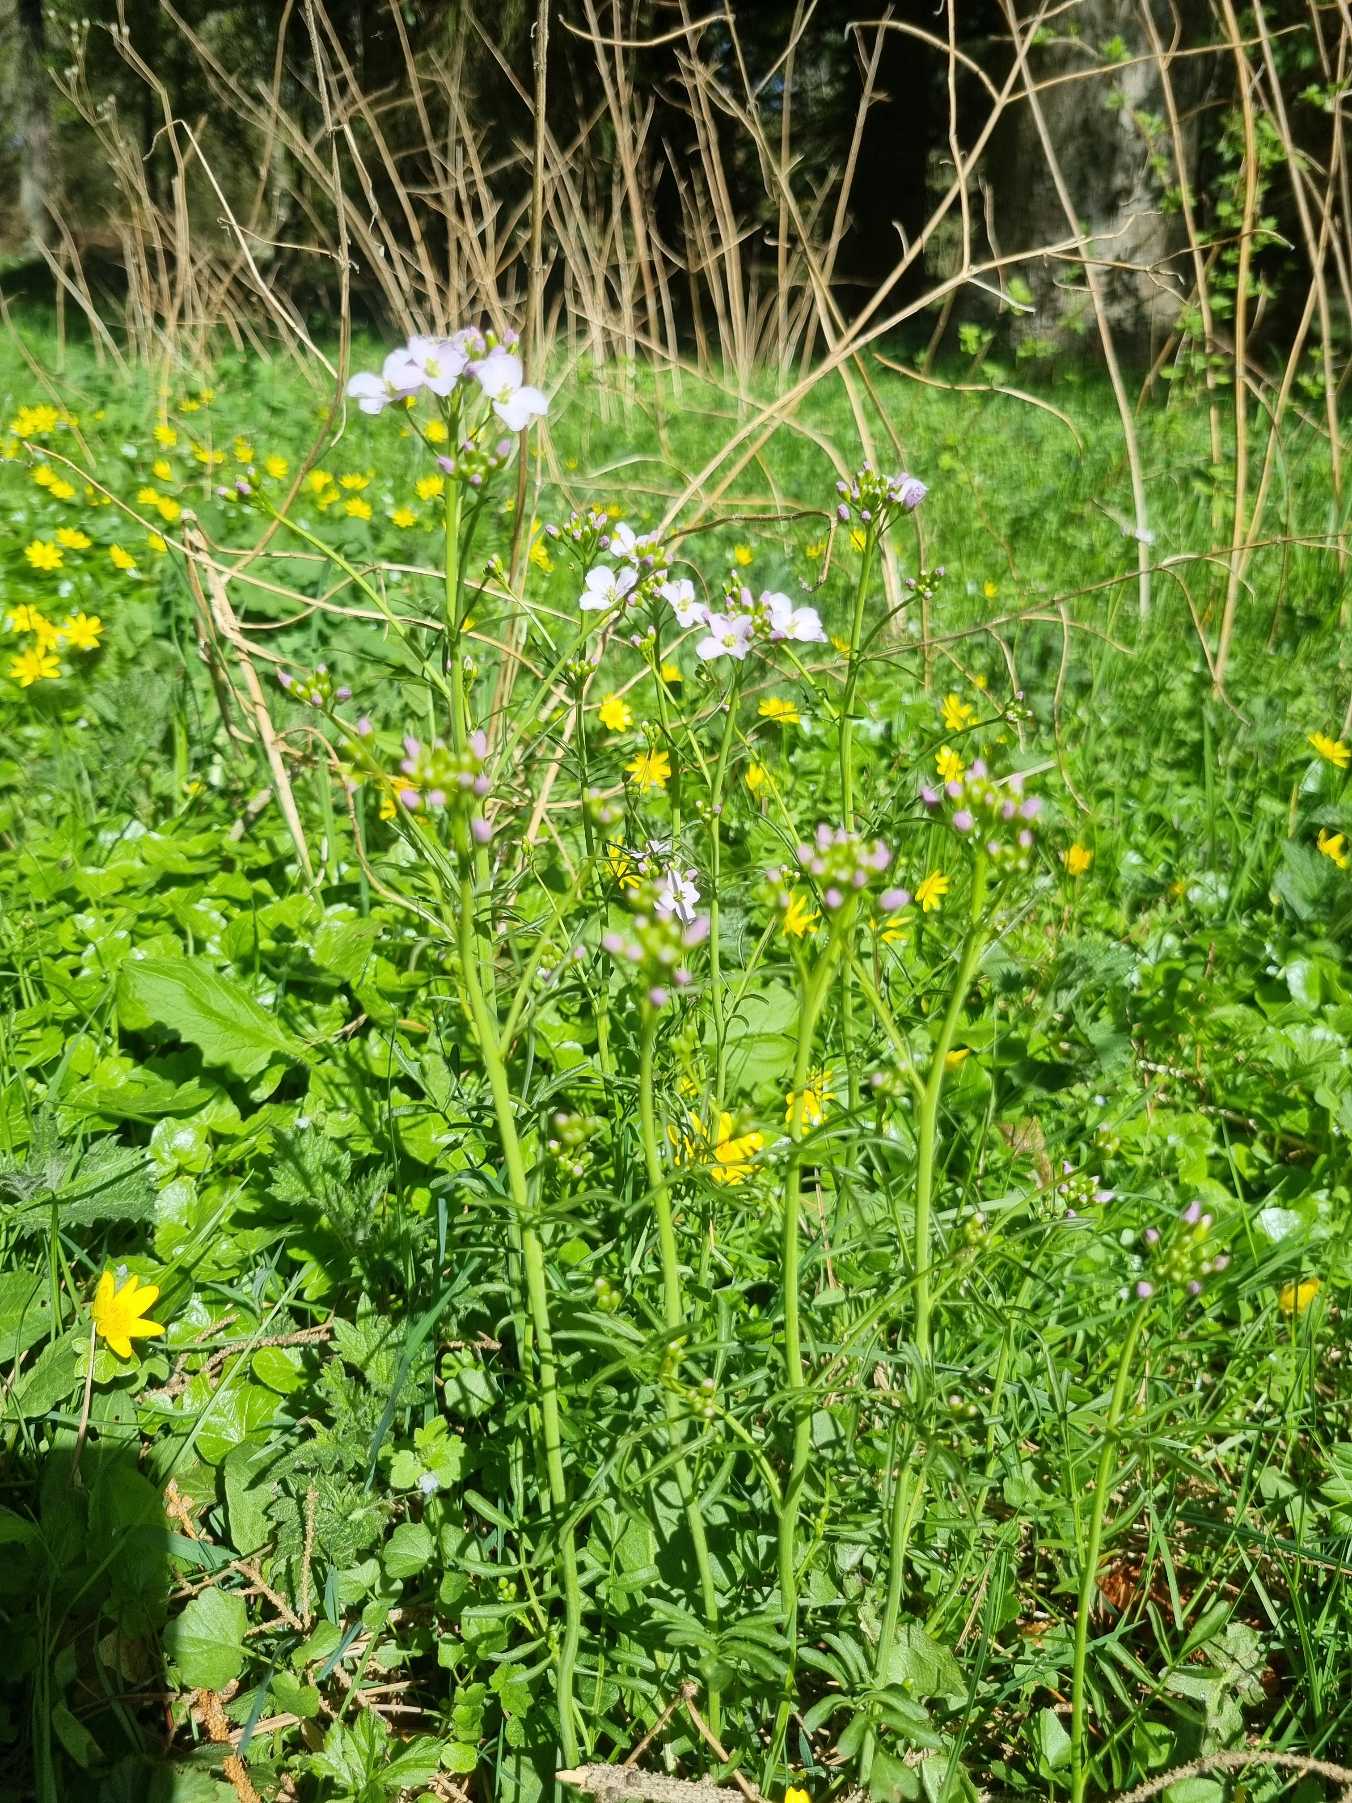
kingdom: Plantae
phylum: Tracheophyta
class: Magnoliopsida
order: Brassicales
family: Brassicaceae
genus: Cardamine
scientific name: Cardamine pratensis
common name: Engkarse
